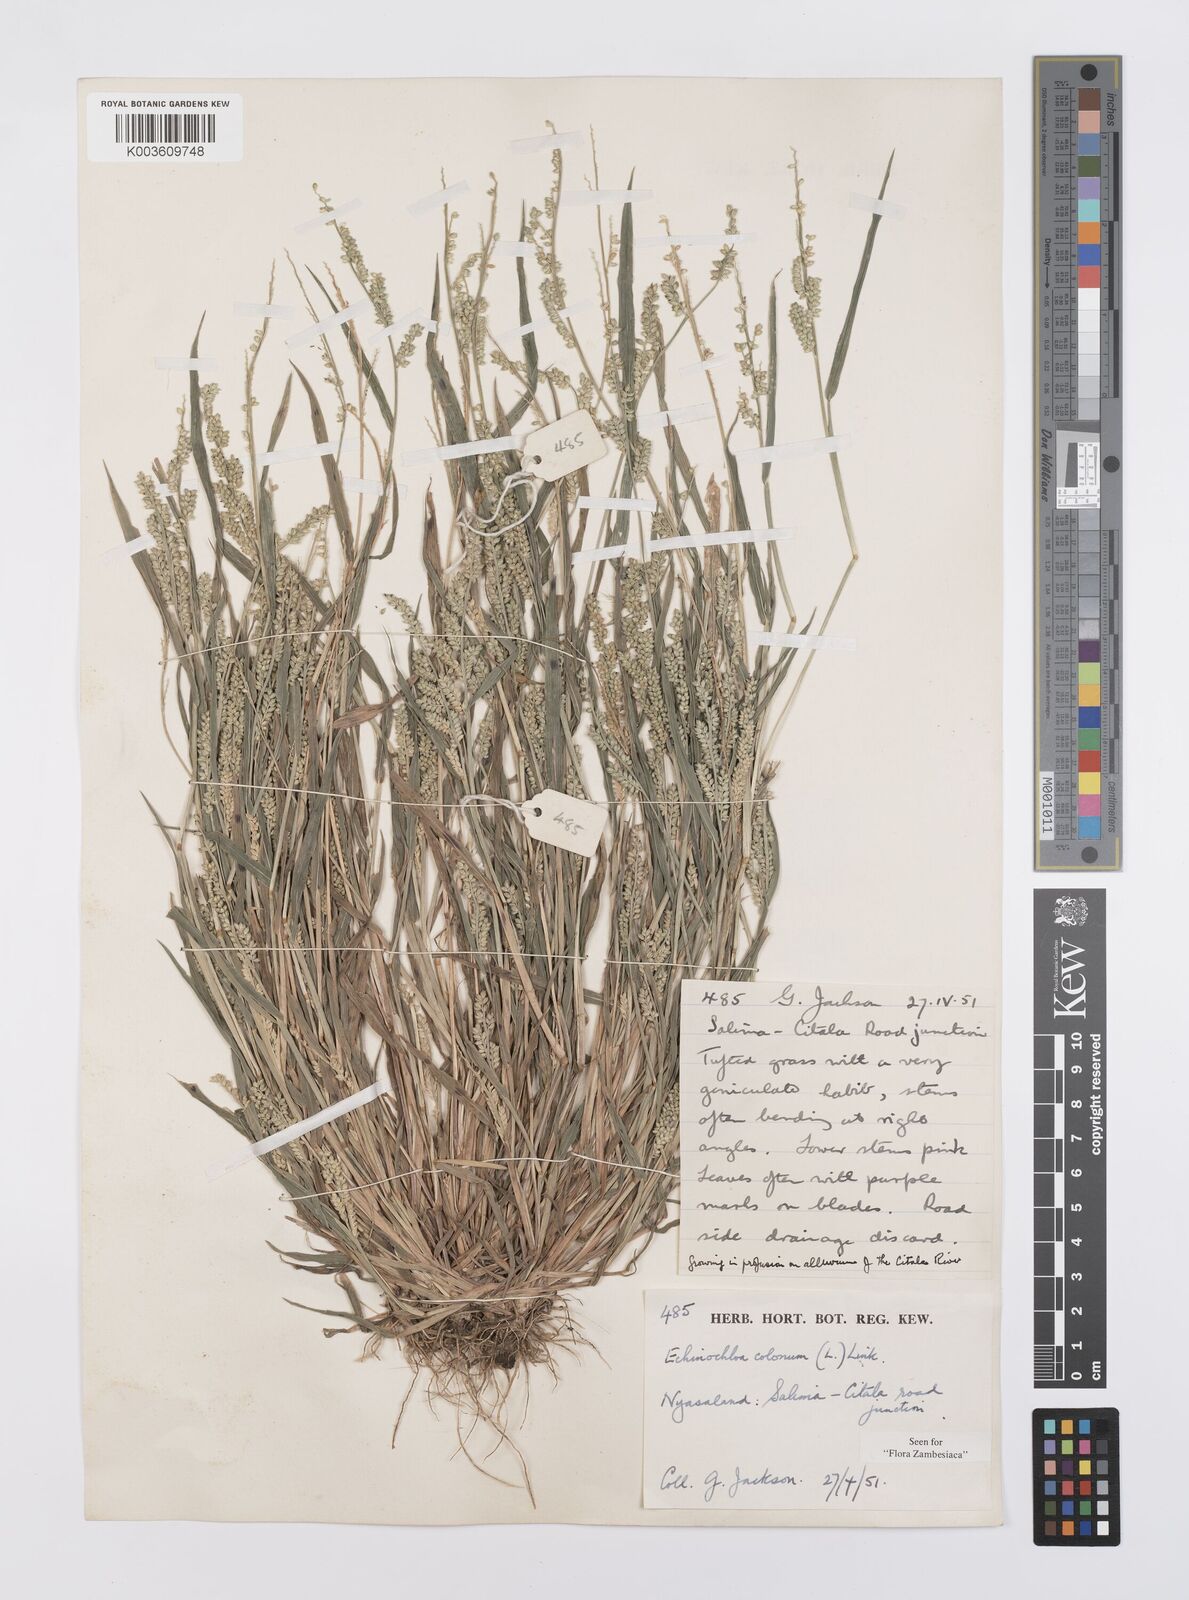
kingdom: Plantae
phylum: Tracheophyta
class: Liliopsida
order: Poales
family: Poaceae
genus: Echinochloa
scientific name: Echinochloa colonum
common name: Jungle rice
